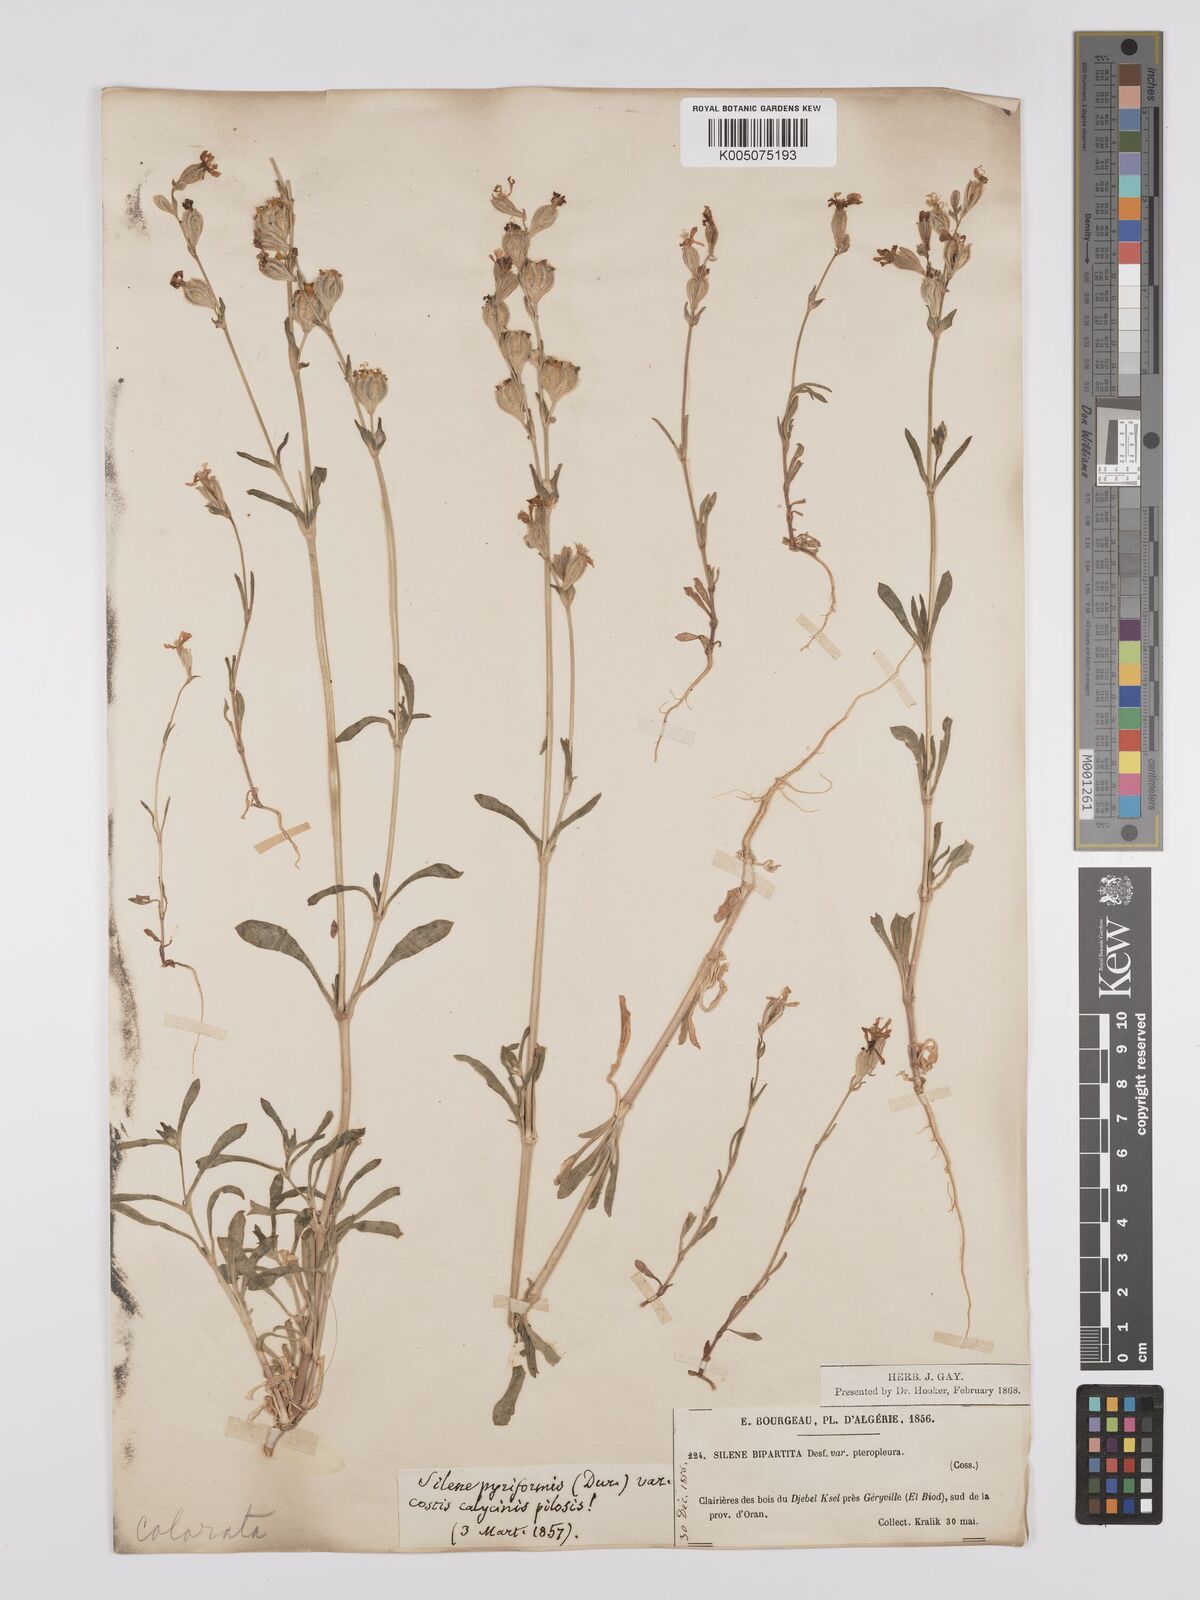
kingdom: Plantae
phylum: Tracheophyta
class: Magnoliopsida
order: Caryophyllales
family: Caryophyllaceae
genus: Silene
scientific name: Silene stricta
